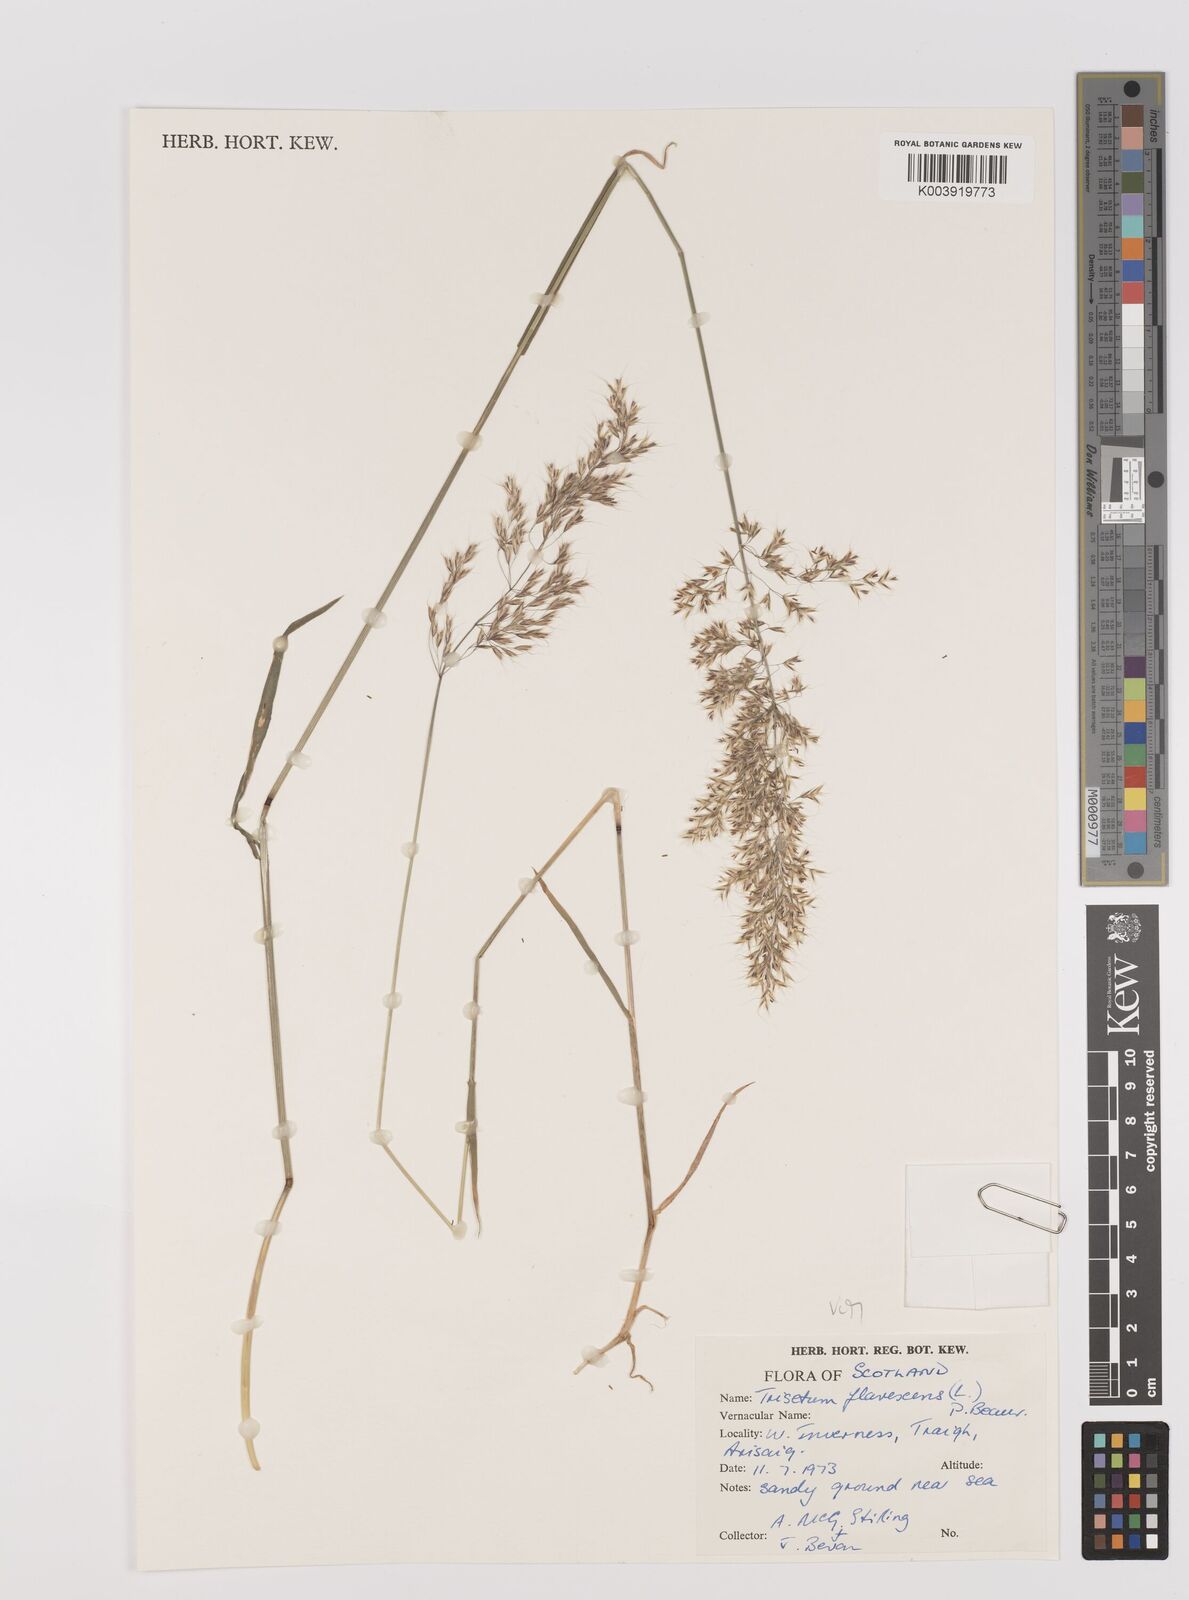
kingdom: Plantae
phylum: Tracheophyta
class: Liliopsida
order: Poales
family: Poaceae
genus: Trisetum
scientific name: Trisetum flavescens
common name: Yellow oat-grass
